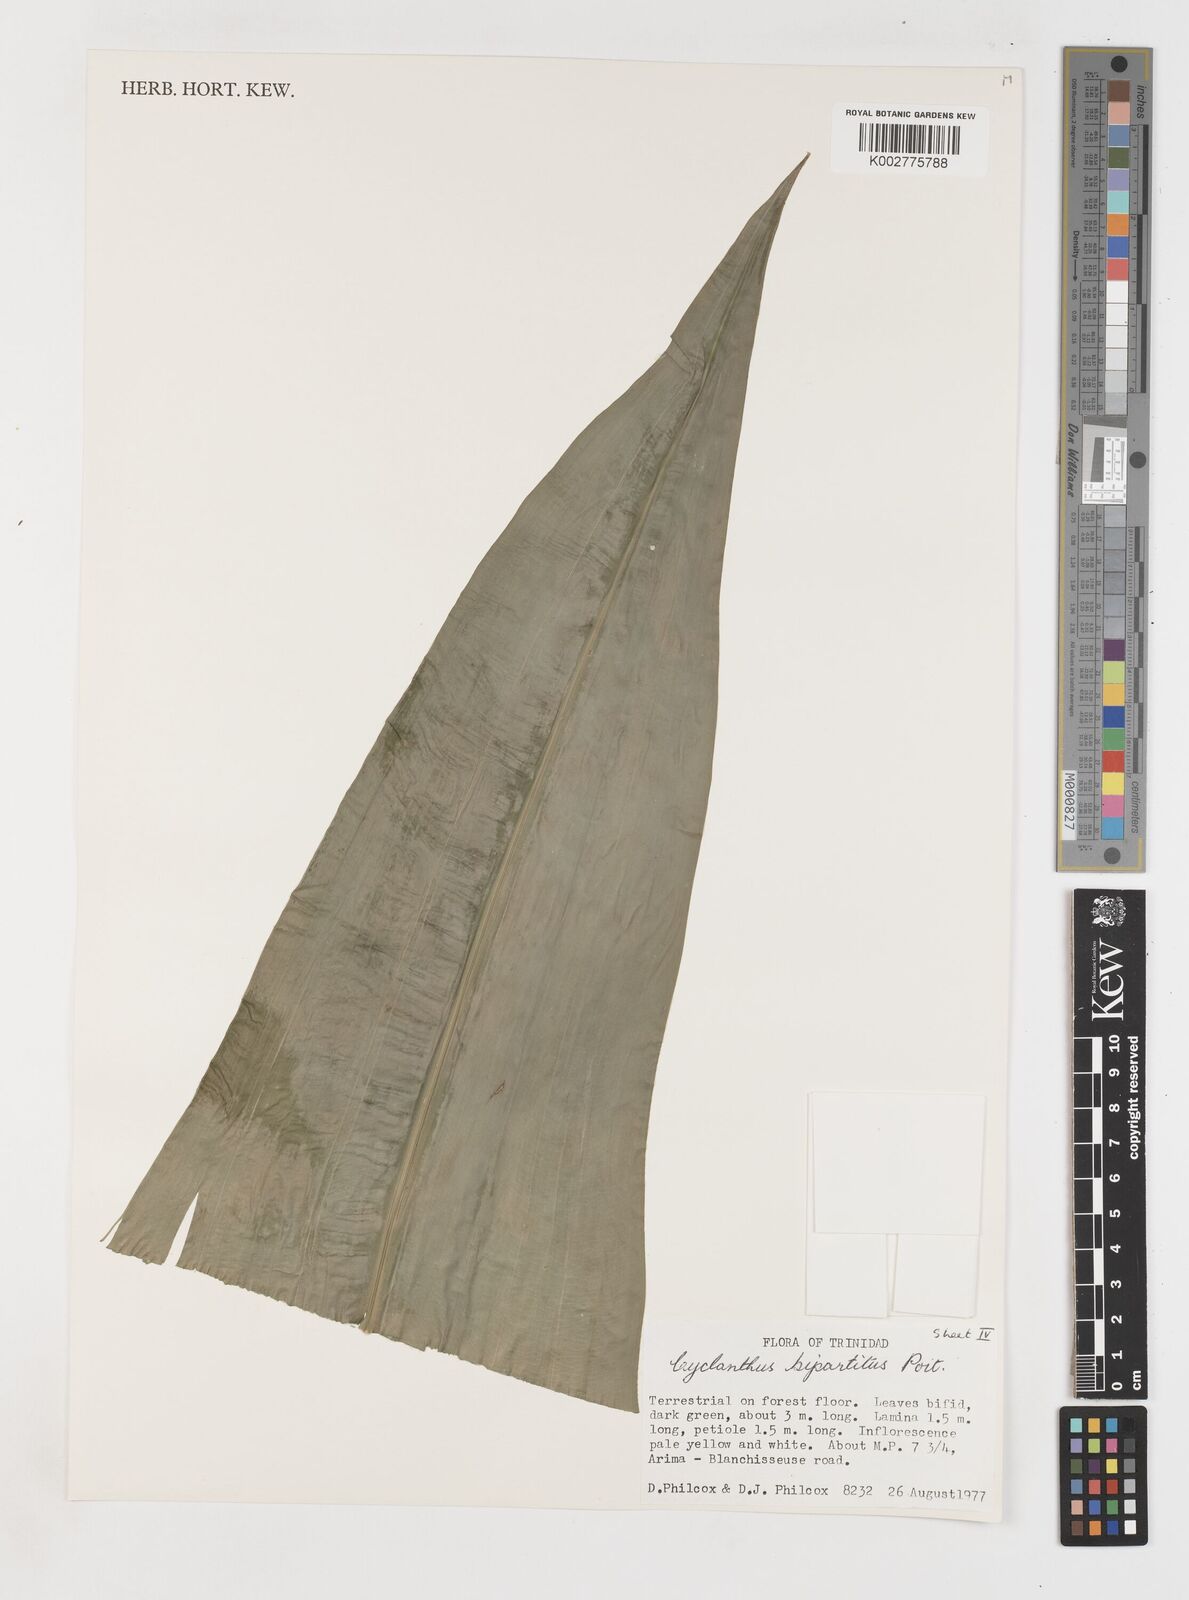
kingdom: Plantae
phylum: Tracheophyta
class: Liliopsida
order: Pandanales
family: Cyclanthaceae
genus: Cyclanthus
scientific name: Cyclanthus bipartitus
